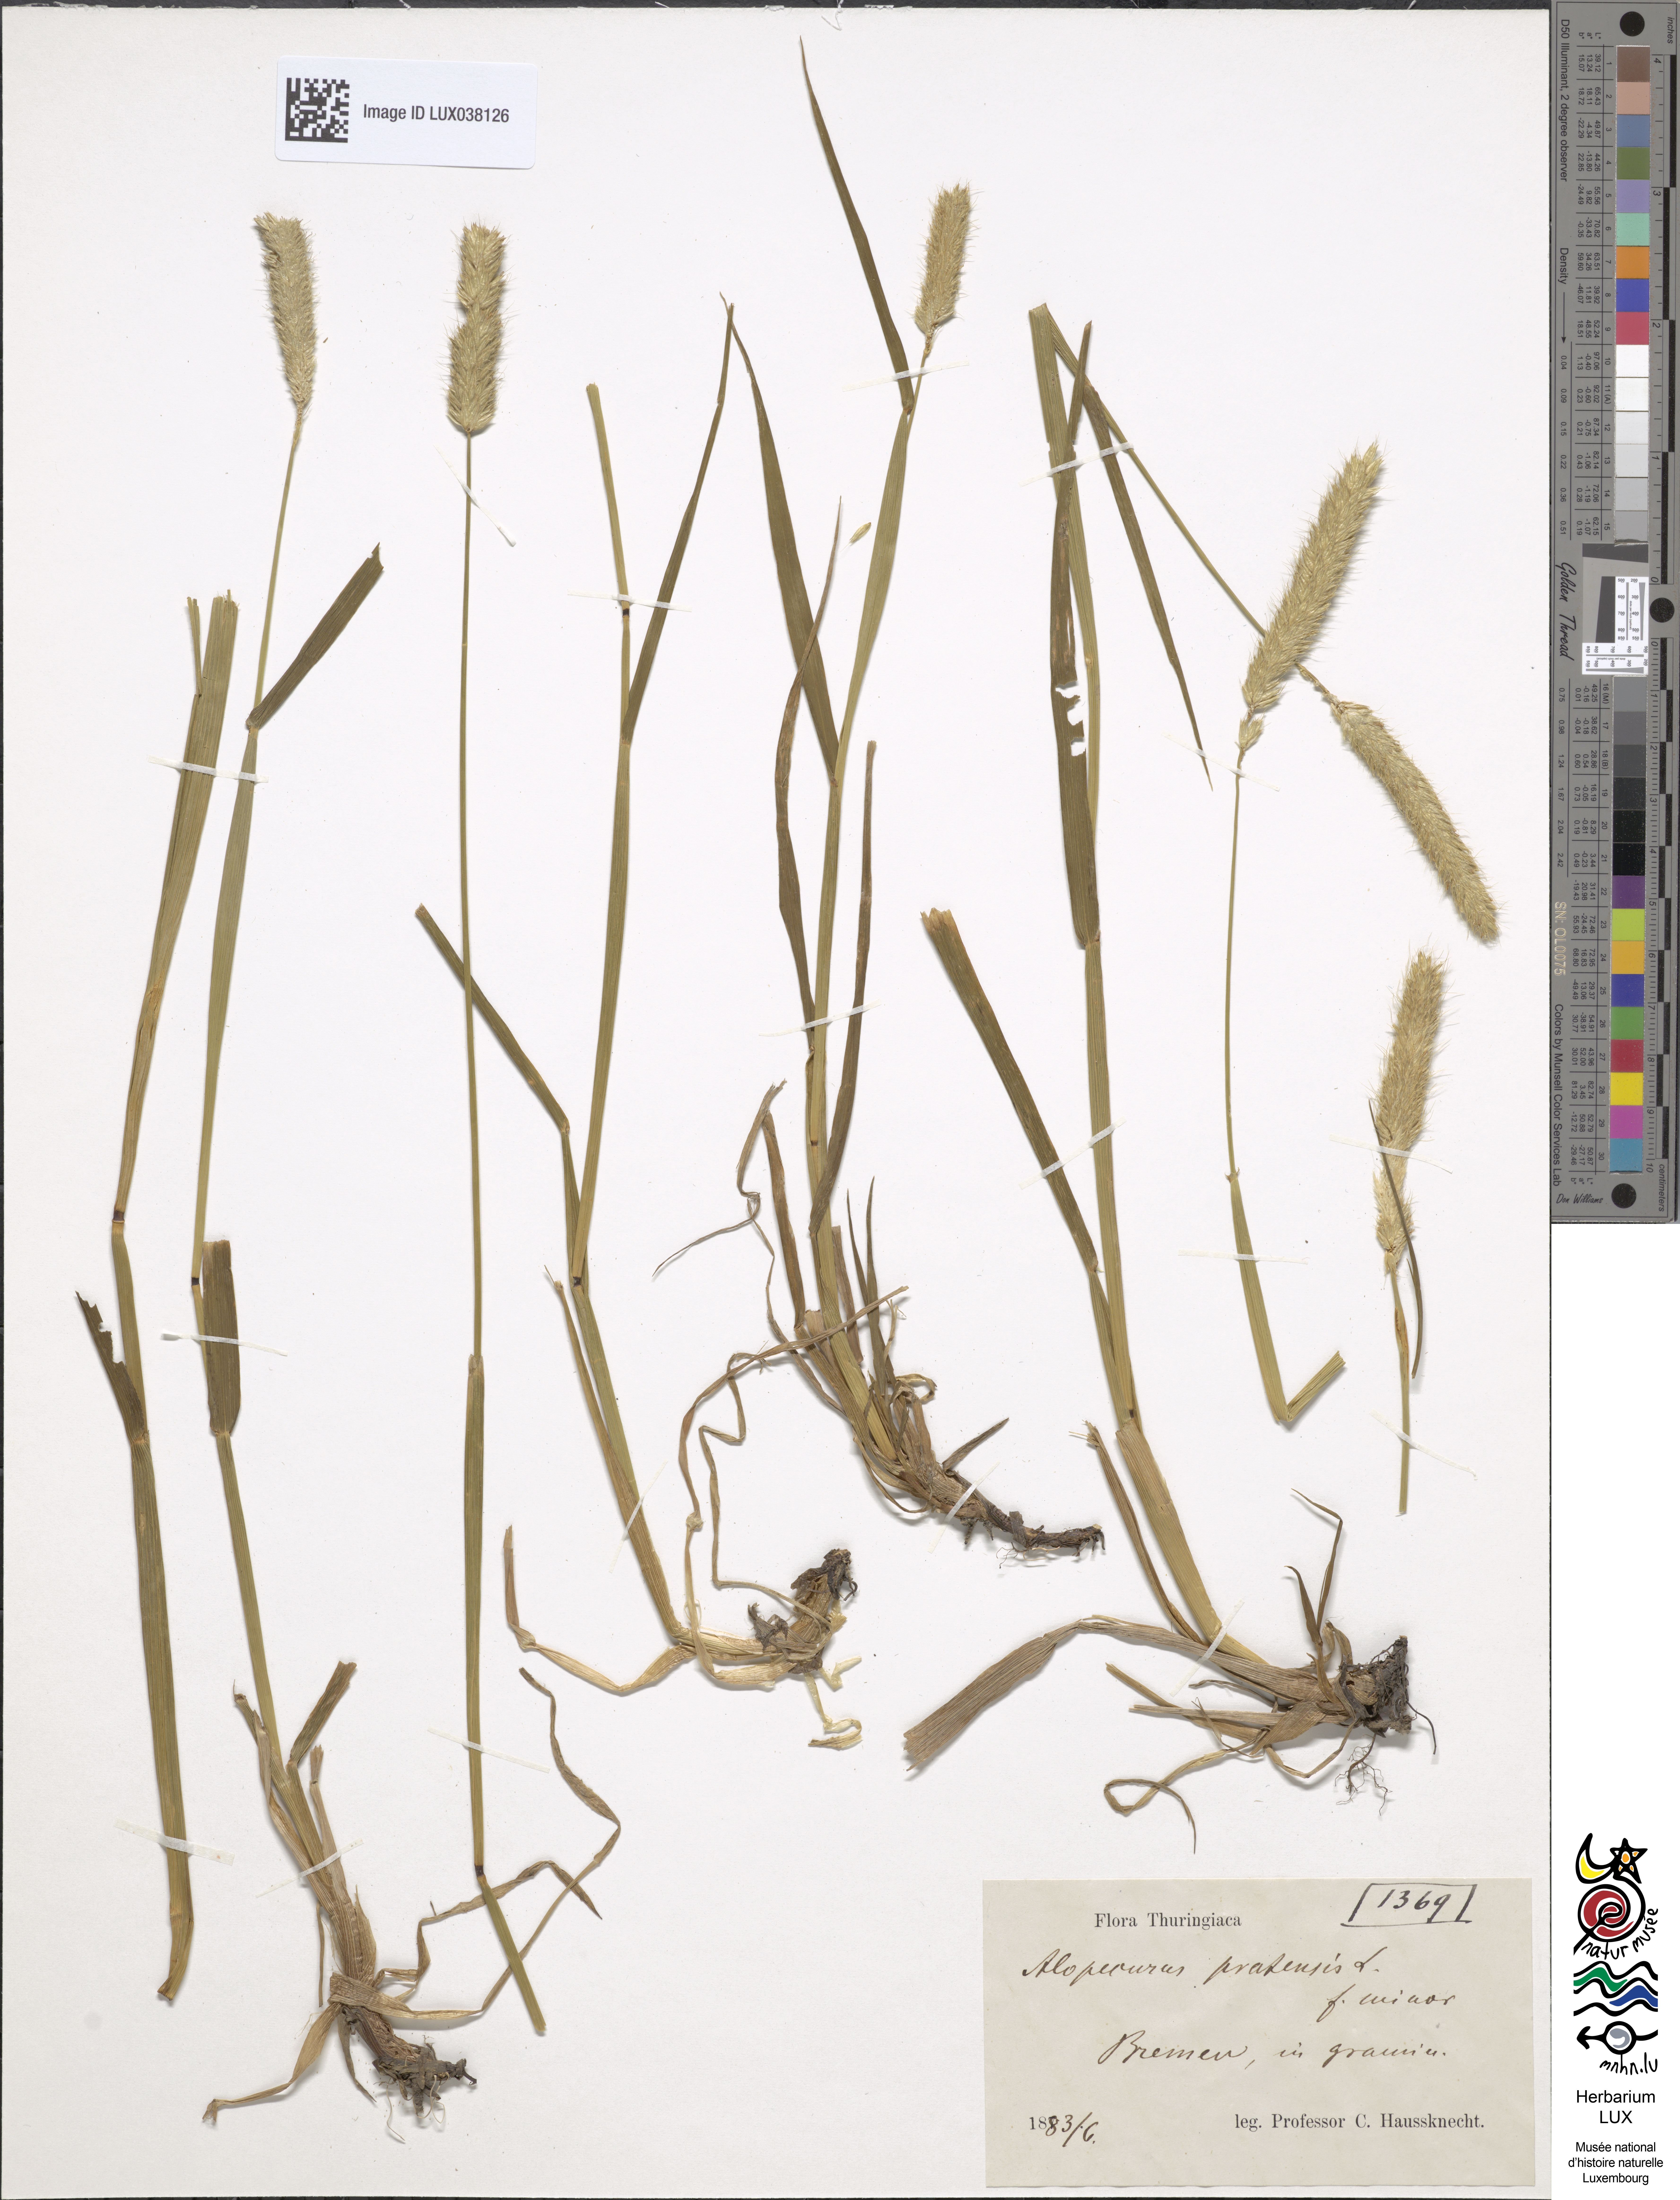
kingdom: Plantae
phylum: Tracheophyta
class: Liliopsida
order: Poales
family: Poaceae
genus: Alopecurus
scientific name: Alopecurus pratensis
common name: Meadow foxtail
